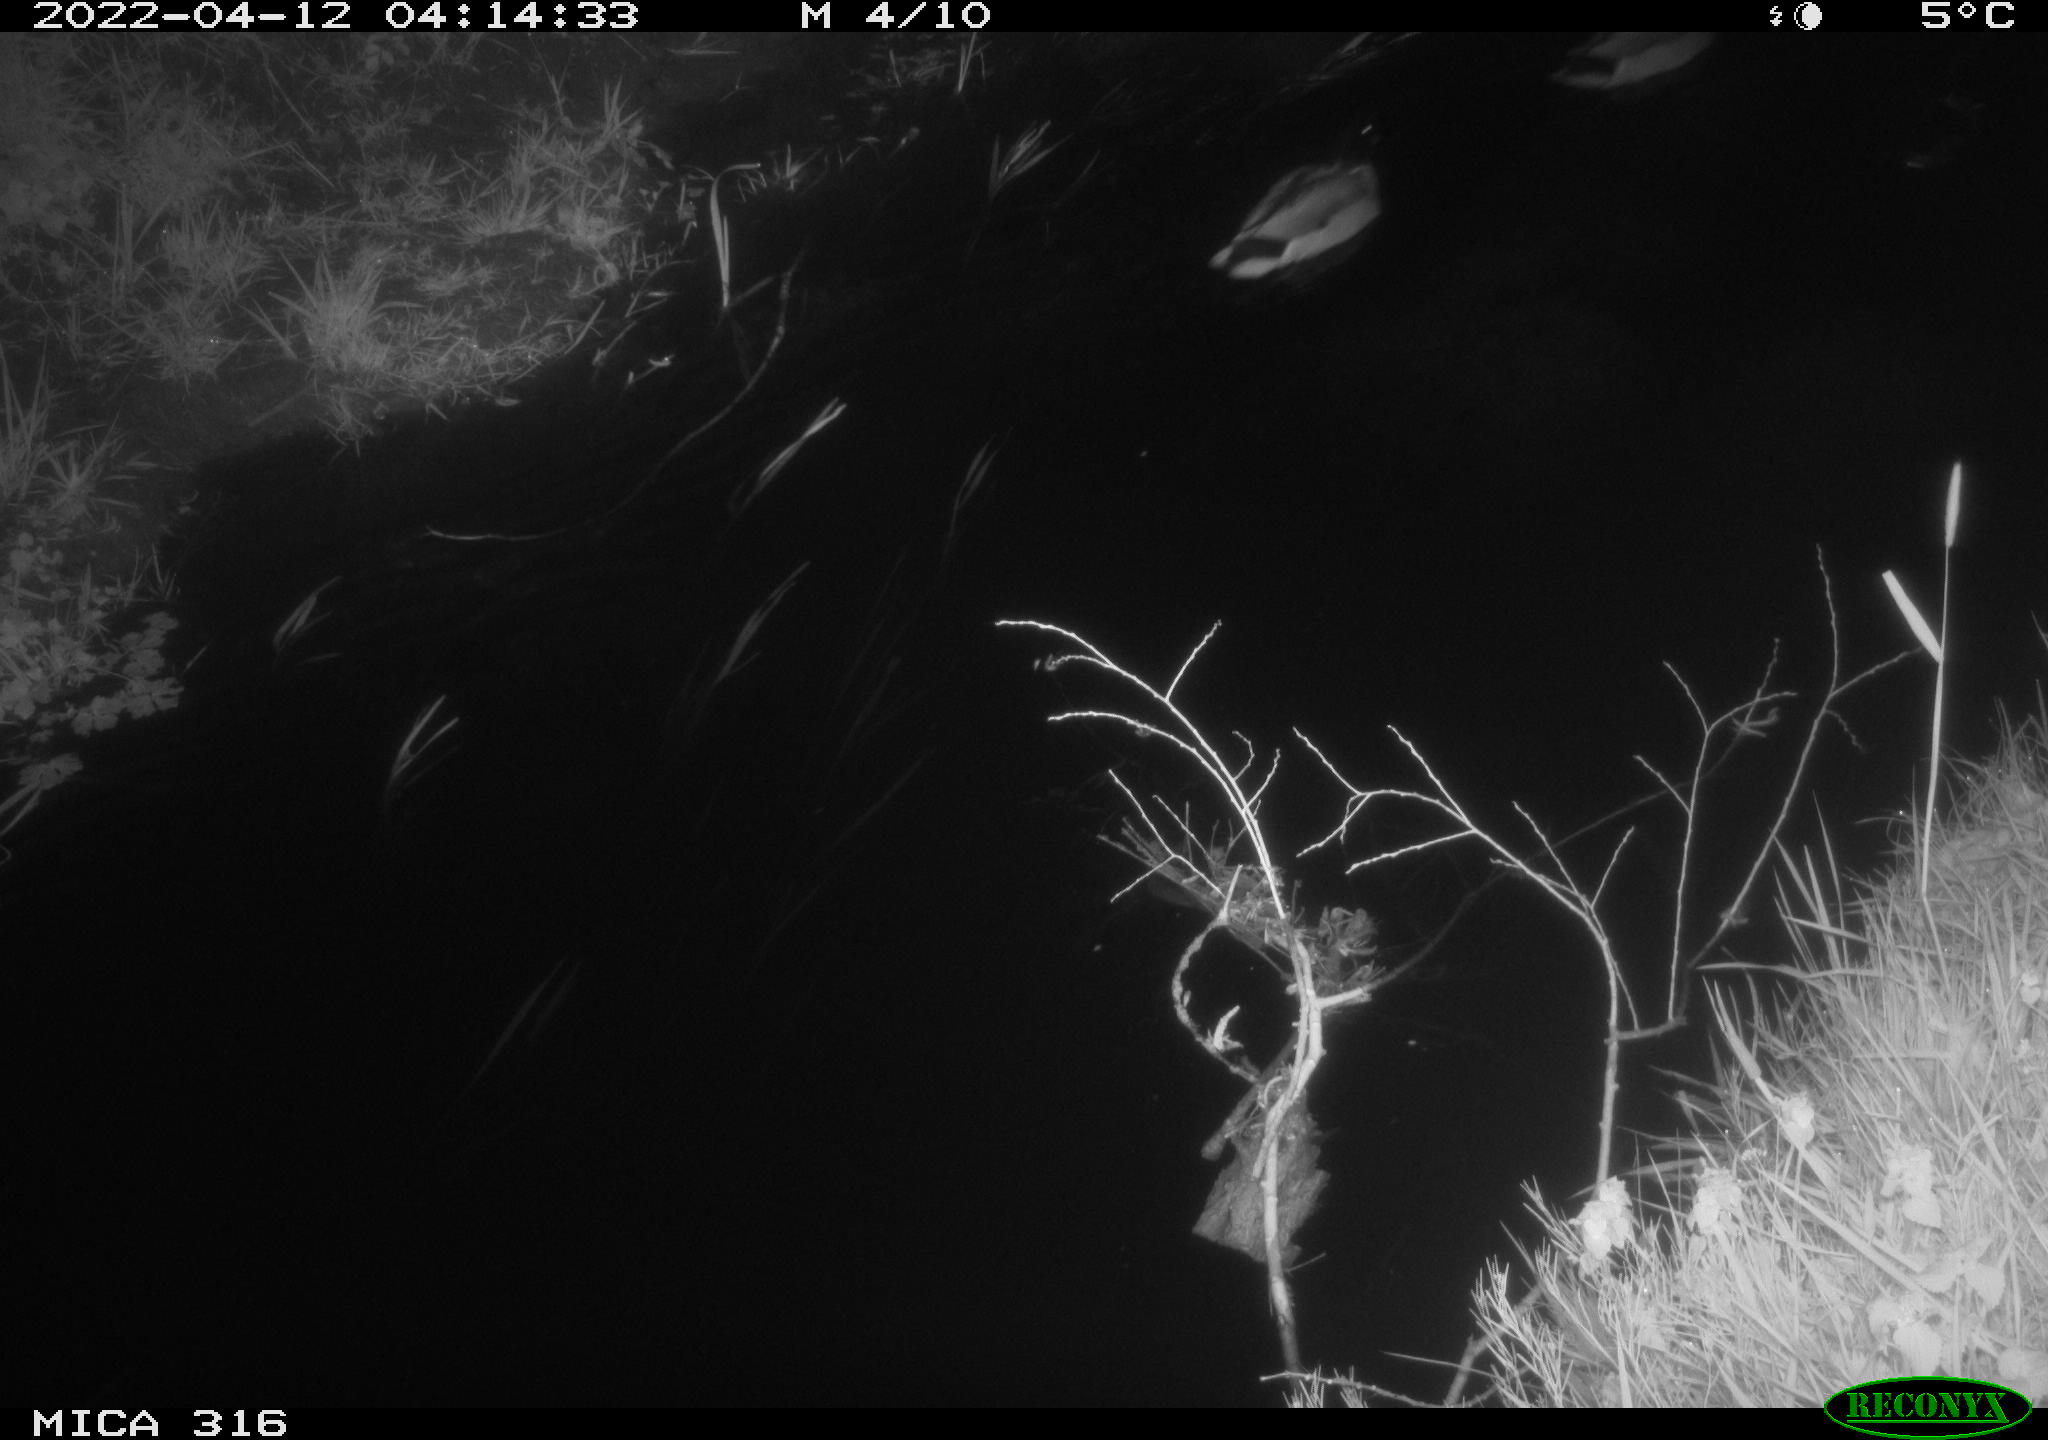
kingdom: Animalia
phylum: Chordata
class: Aves
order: Anseriformes
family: Anatidae
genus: Anas
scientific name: Anas platyrhynchos
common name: Mallard
